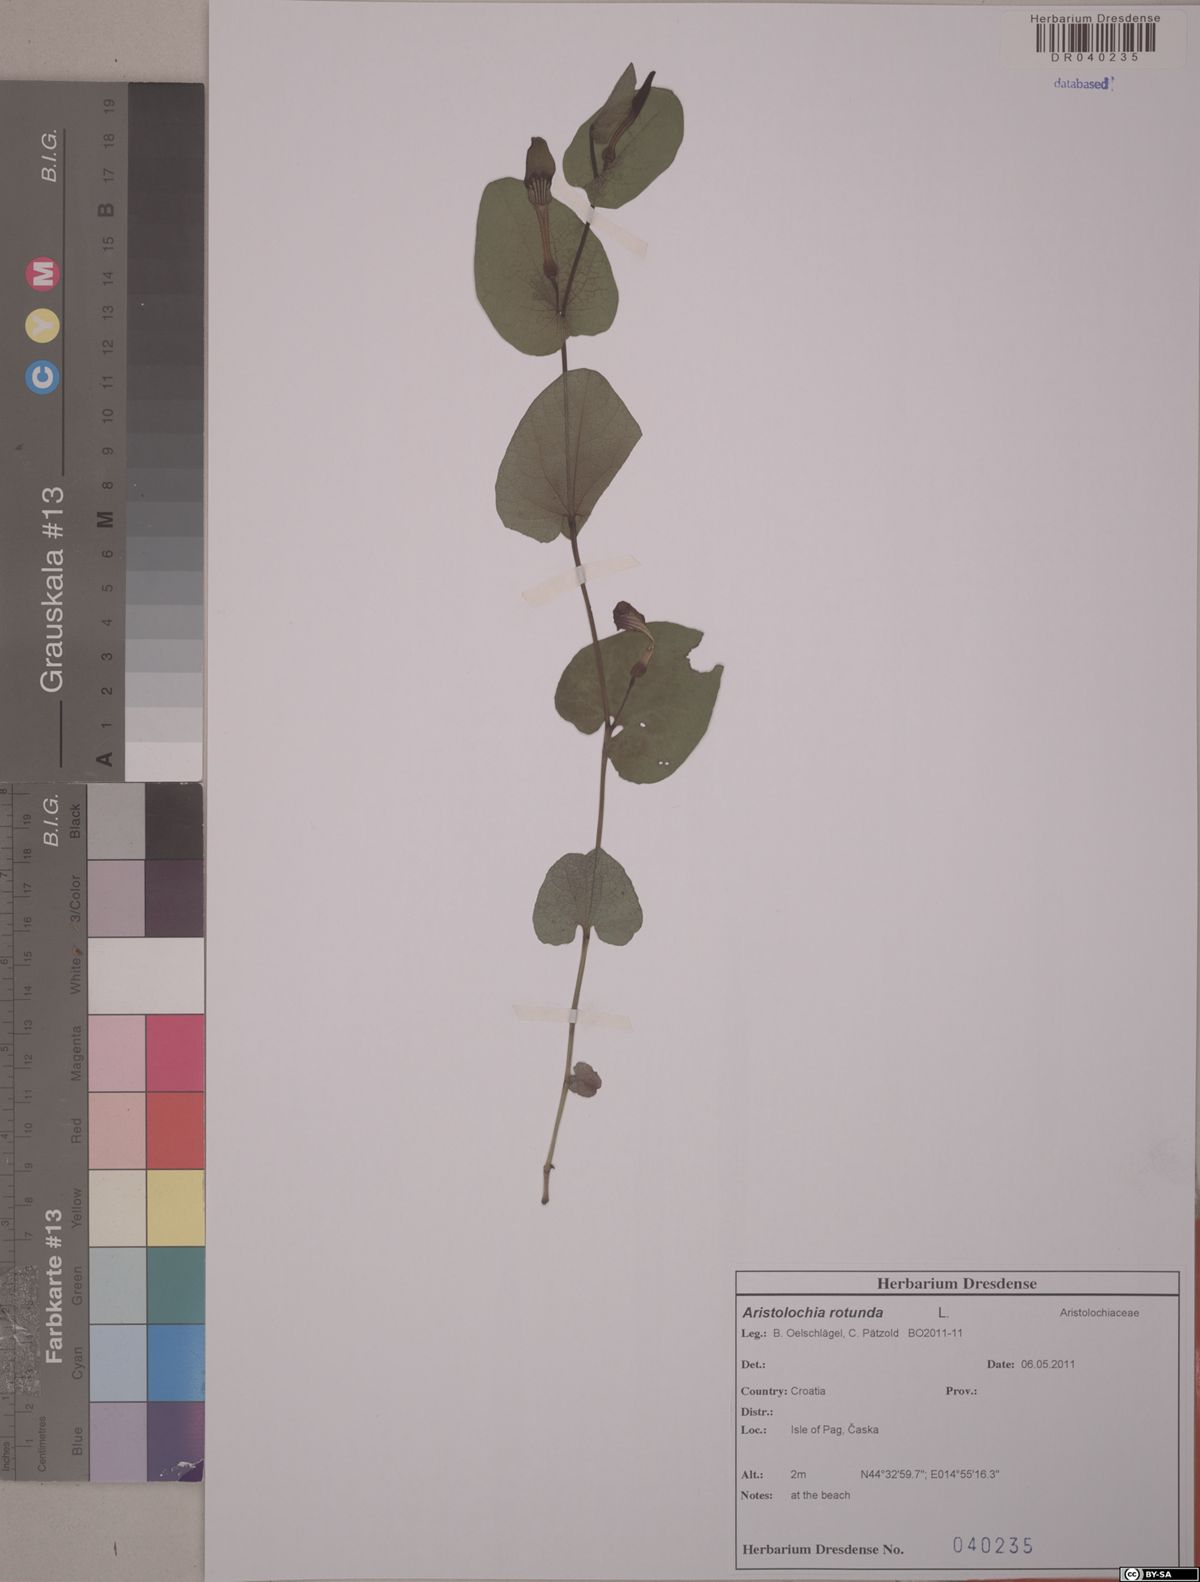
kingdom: Plantae
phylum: Tracheophyta
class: Magnoliopsida
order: Piperales
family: Aristolochiaceae
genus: Aristolochia
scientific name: Aristolochia rotunda
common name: Smearwort
